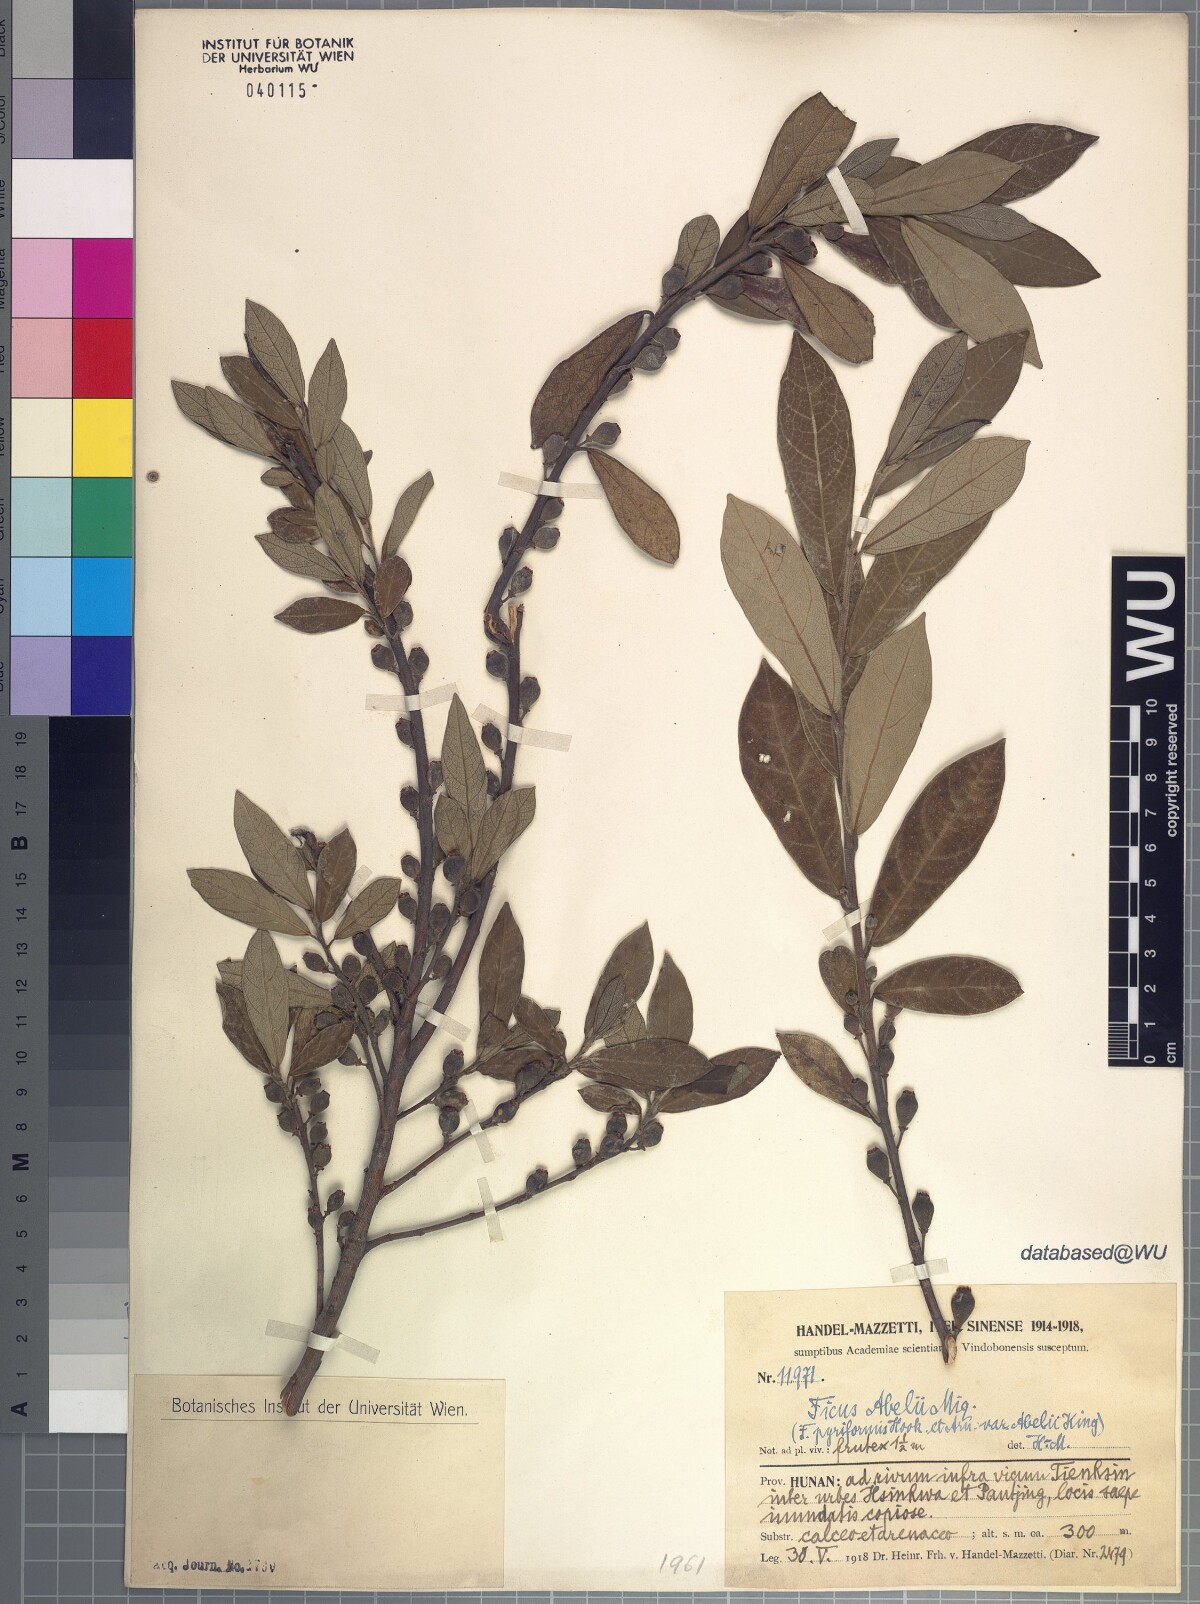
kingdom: Plantae
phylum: Tracheophyta
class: Magnoliopsida
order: Rosales
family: Moraceae
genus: Ficus
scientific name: Ficus abelii
